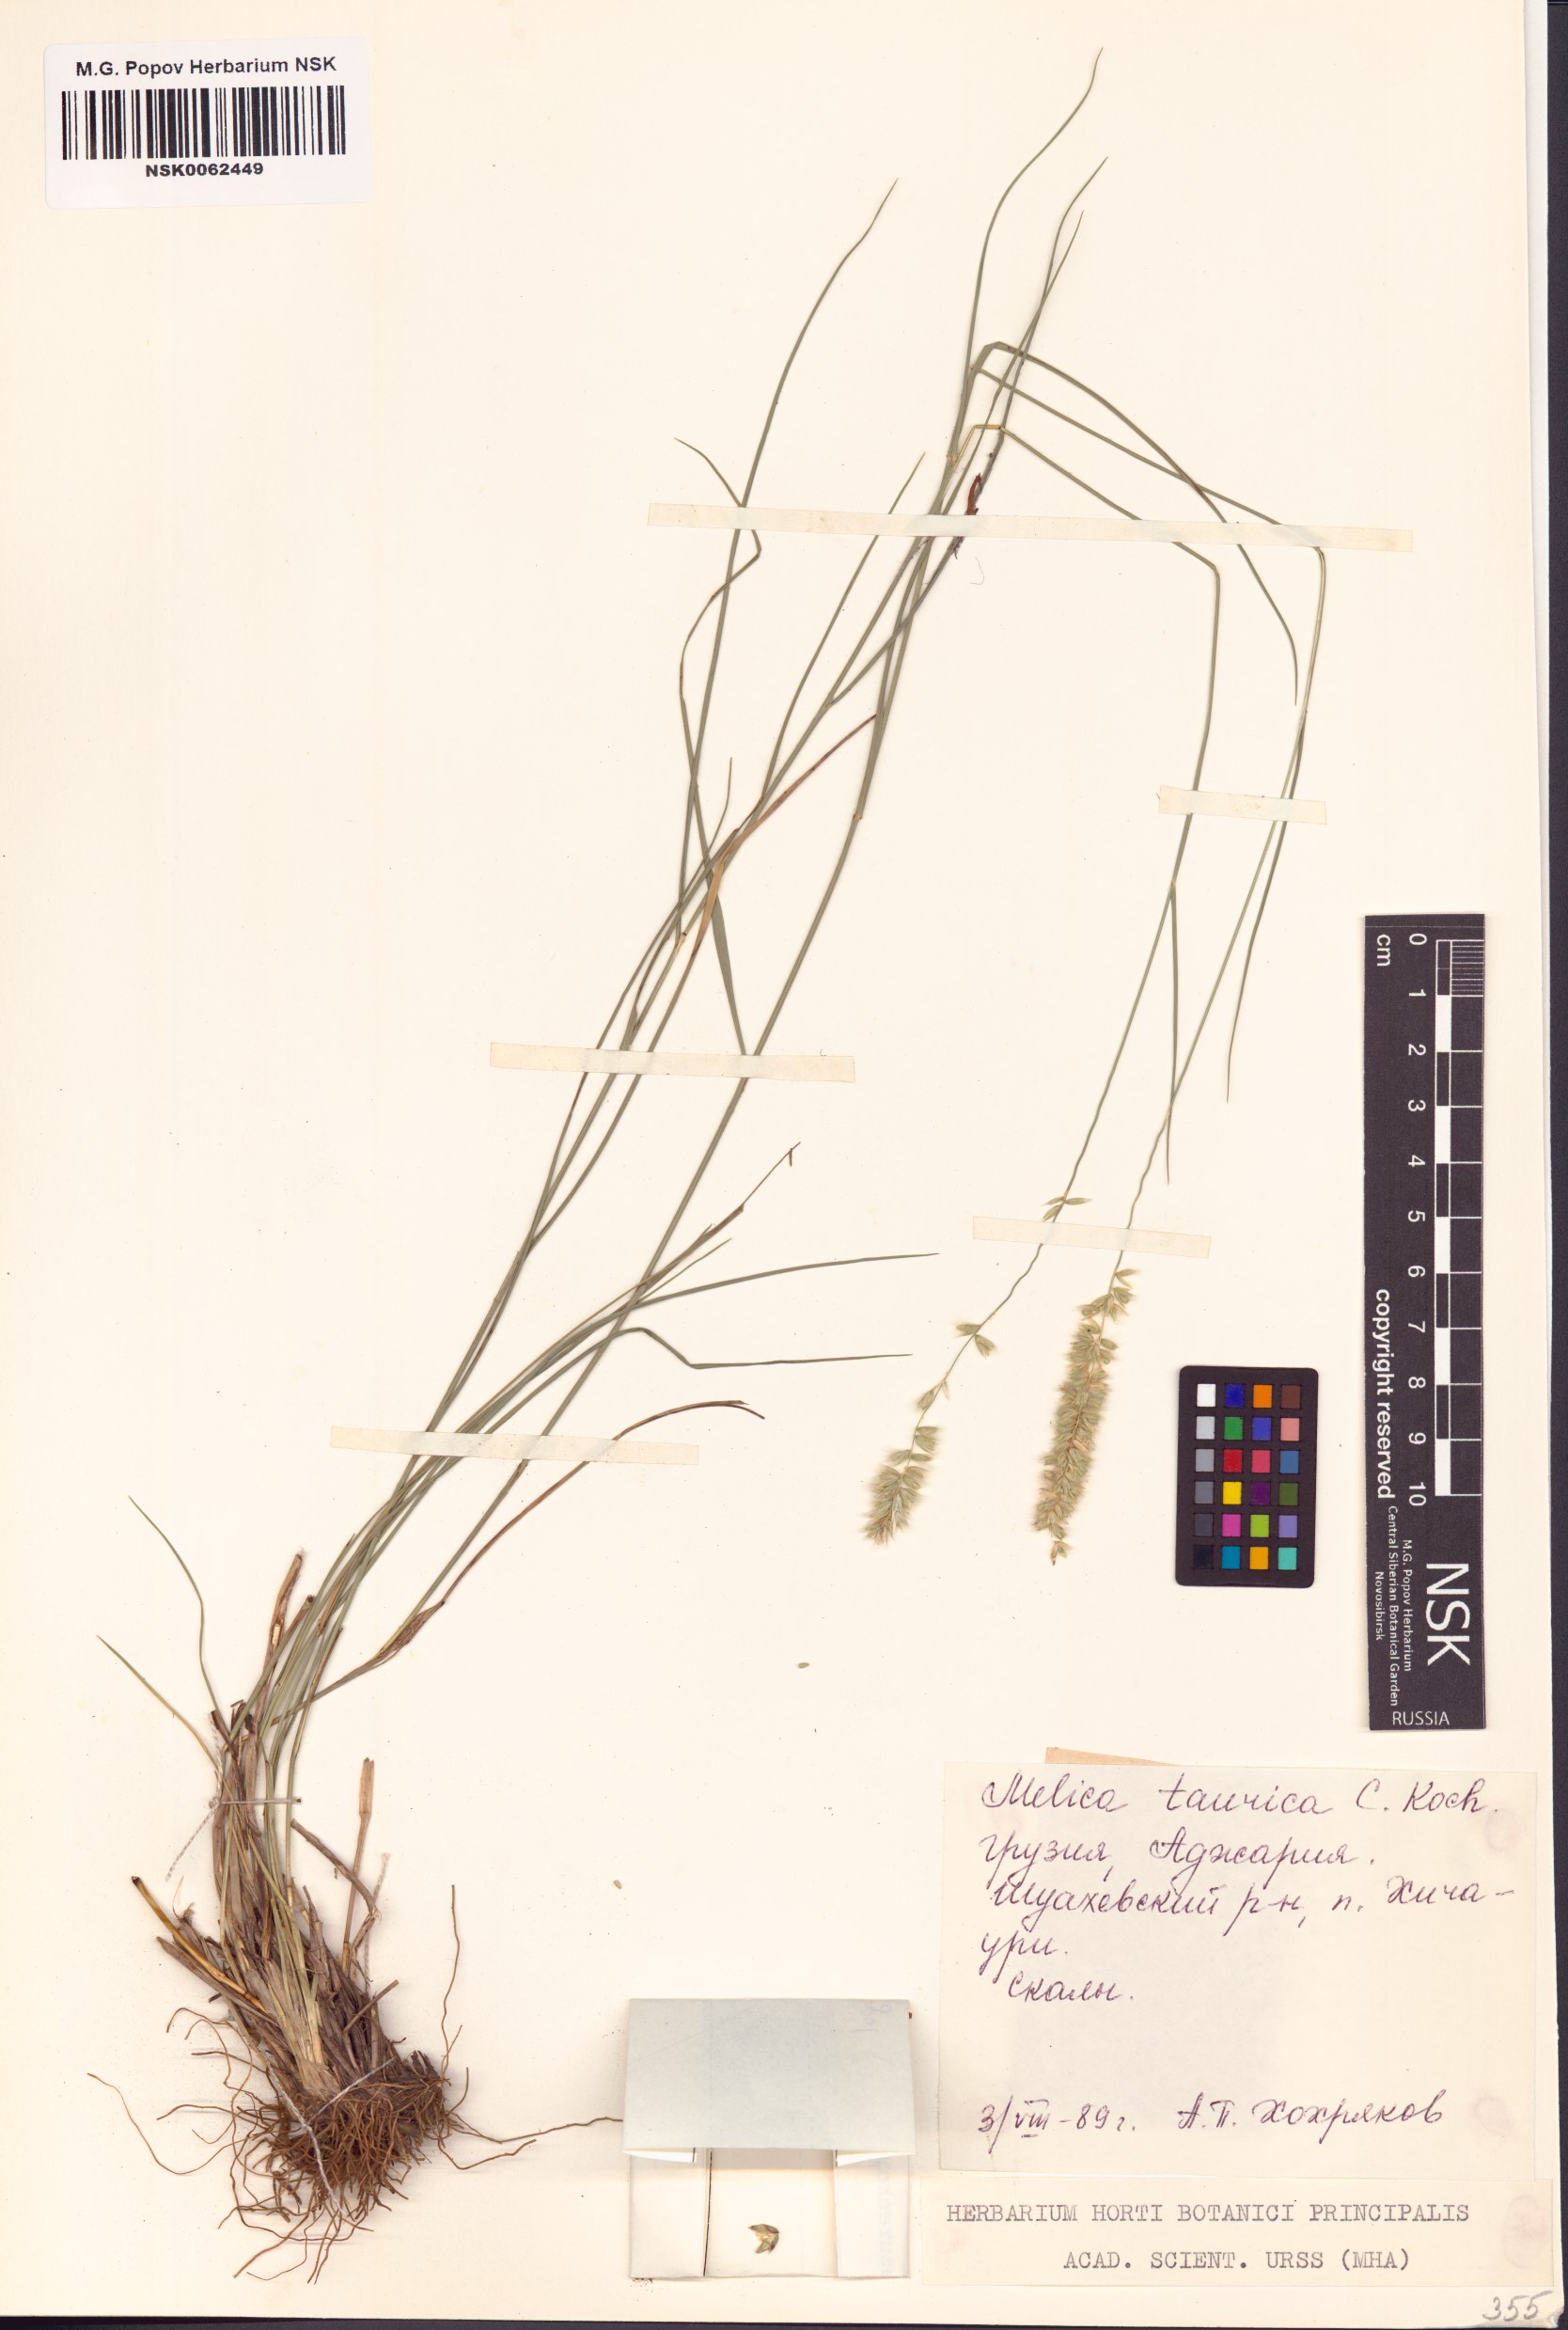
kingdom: Plantae
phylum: Tracheophyta
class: Liliopsida
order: Poales
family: Poaceae
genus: Melica
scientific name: Melica ciliata
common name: Hairy melicgrass
